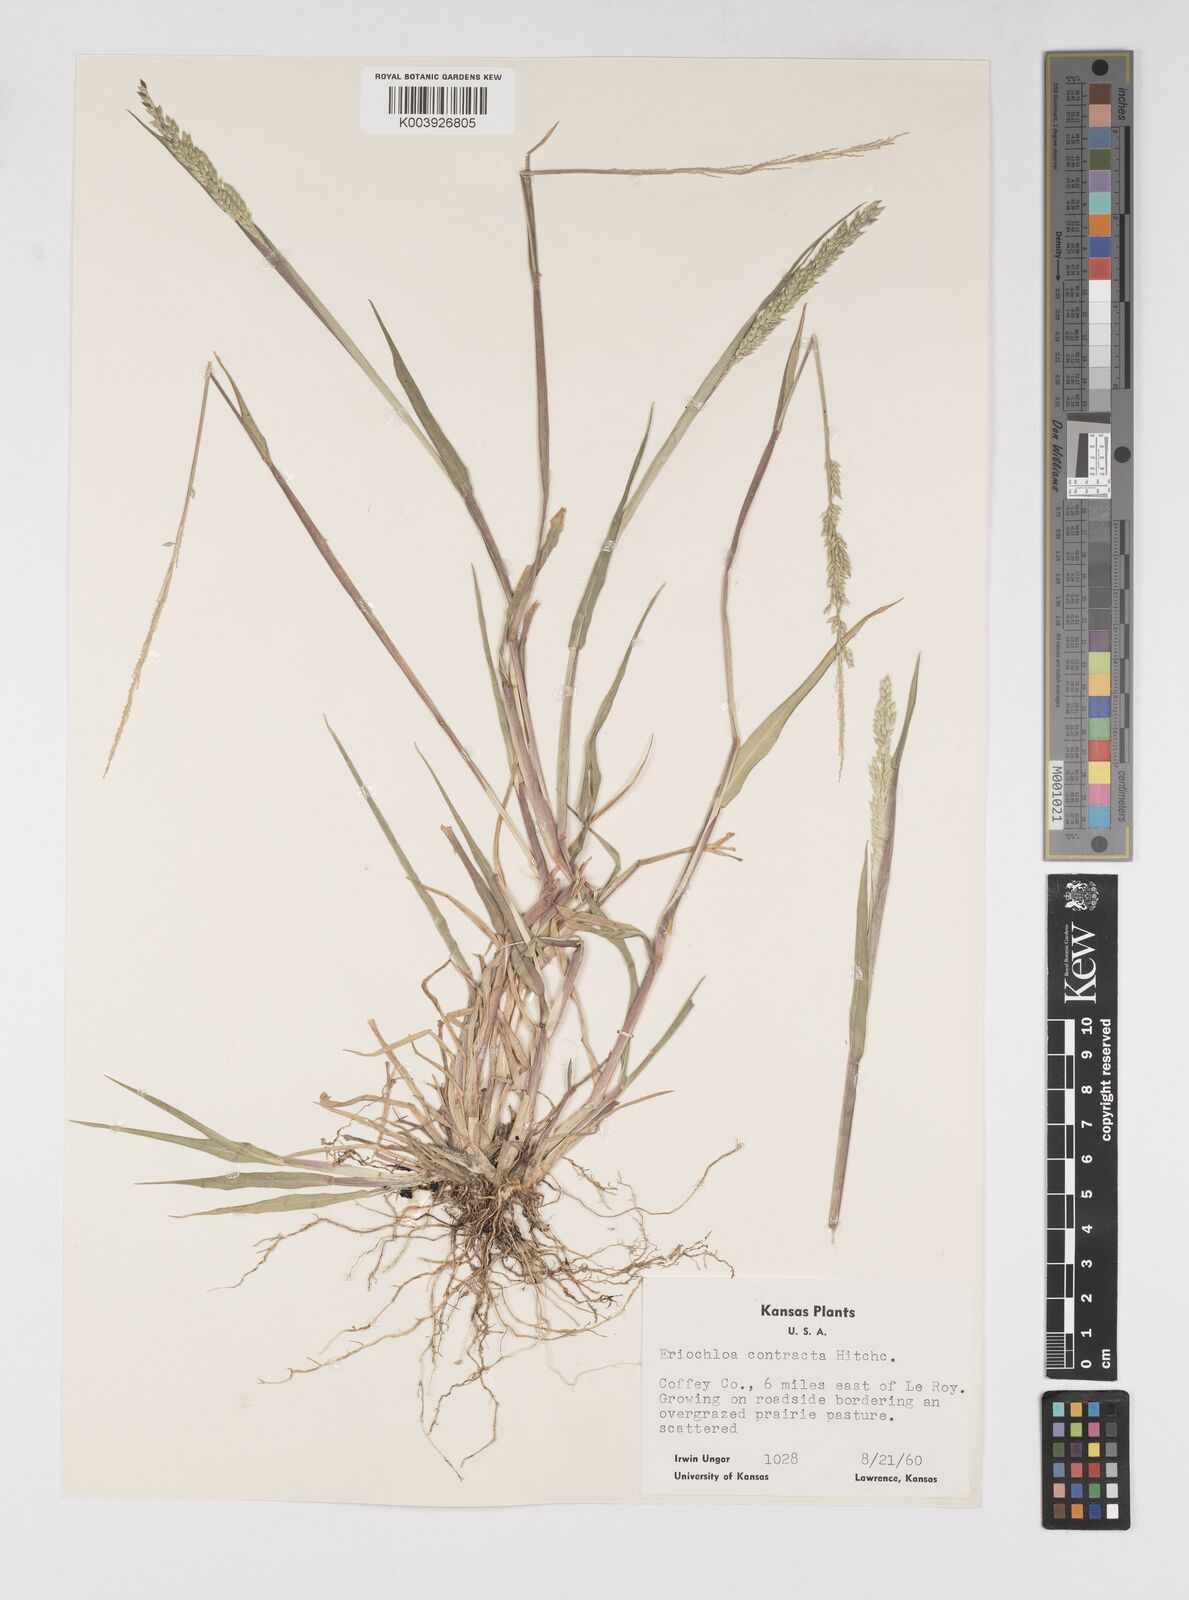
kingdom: Plantae
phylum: Tracheophyta
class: Liliopsida
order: Poales
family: Poaceae
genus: Eriochloa
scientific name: Eriochloa contracta
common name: Prairie cup grass
